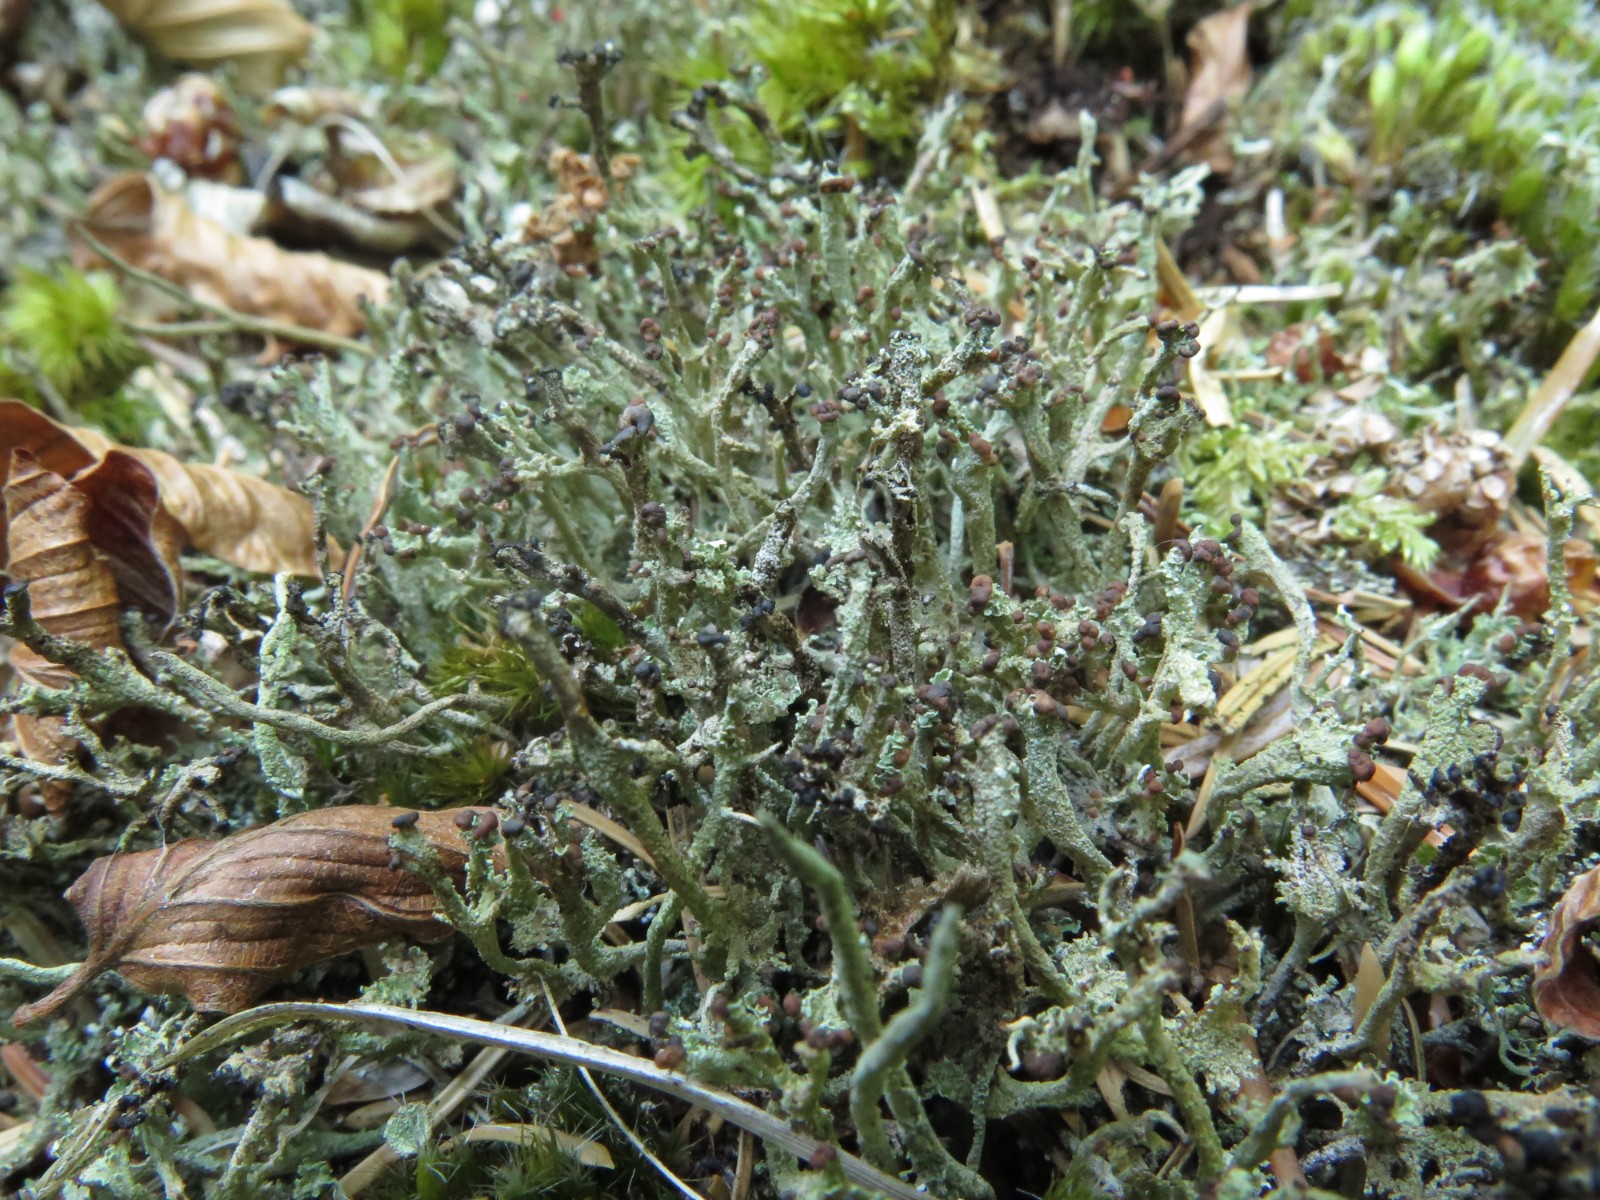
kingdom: Fungi
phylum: Ascomycota
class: Lecanoromycetes
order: Lecanorales
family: Cladoniaceae
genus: Cladonia
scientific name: Cladonia ramulosa
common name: kliddet bægerlav
